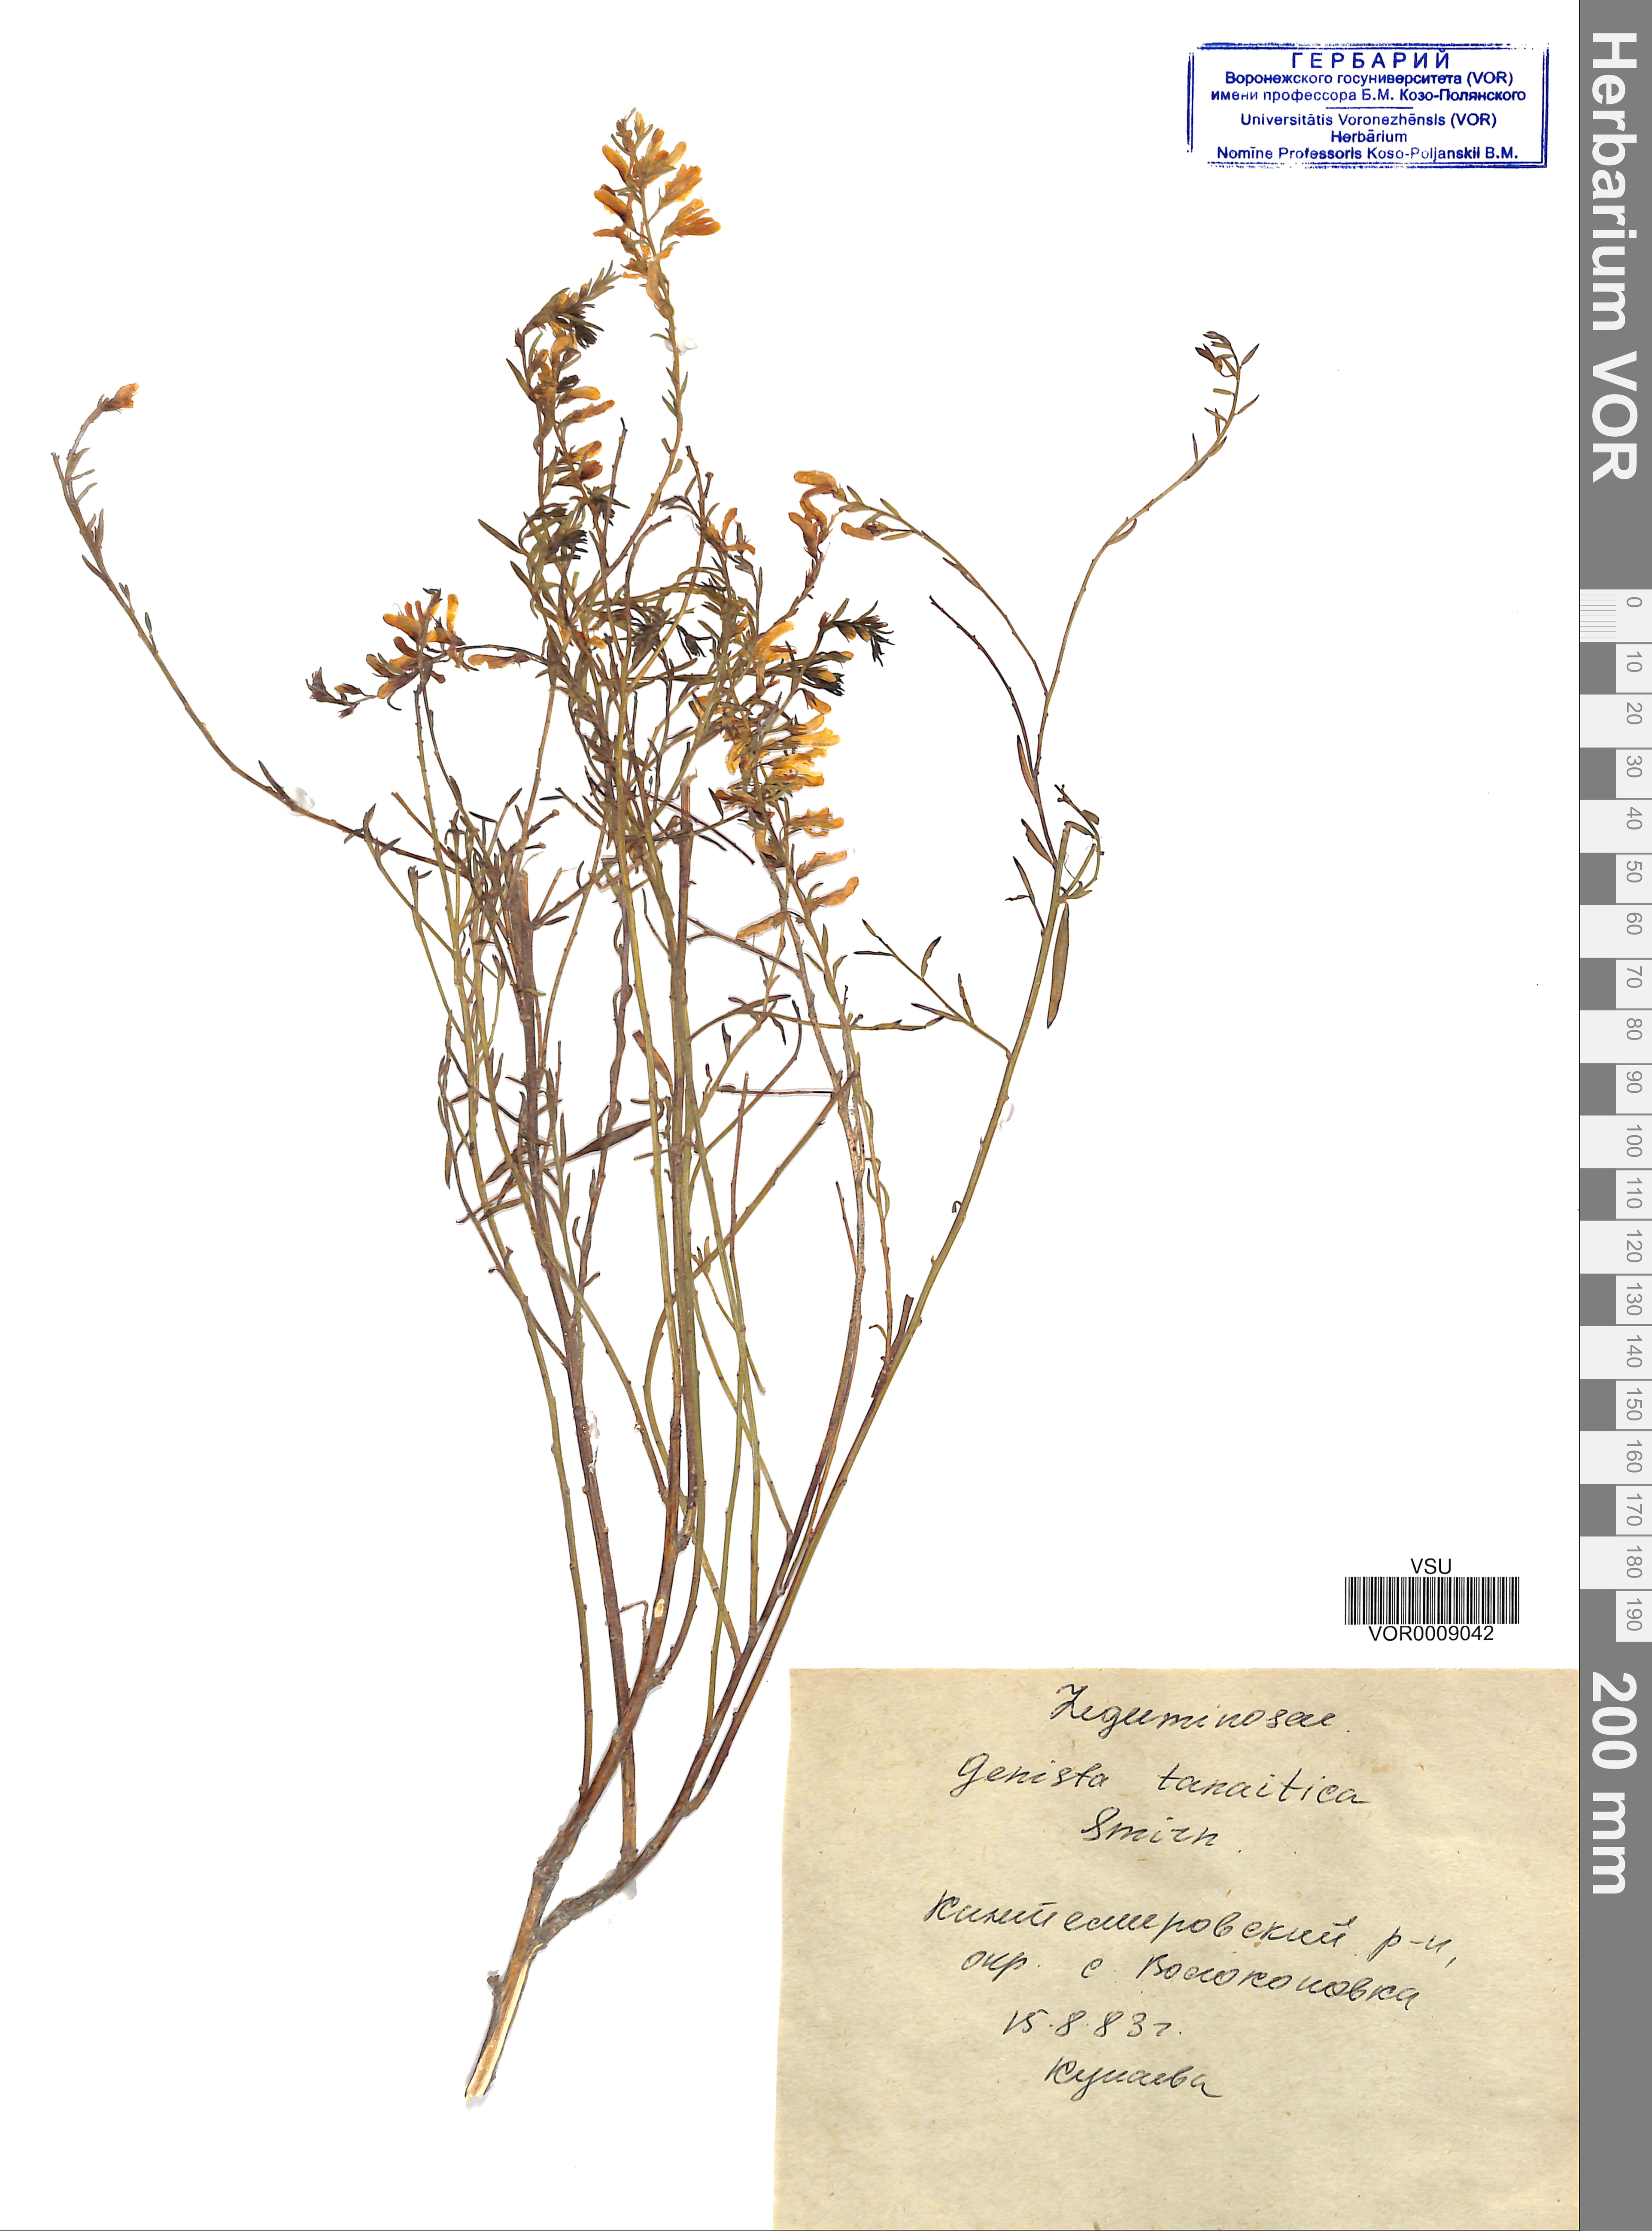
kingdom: Plantae
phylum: Tracheophyta
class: Magnoliopsida
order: Fabales
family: Fabaceae
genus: Genista
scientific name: Genista tinctoria
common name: Dyer's greenweed
